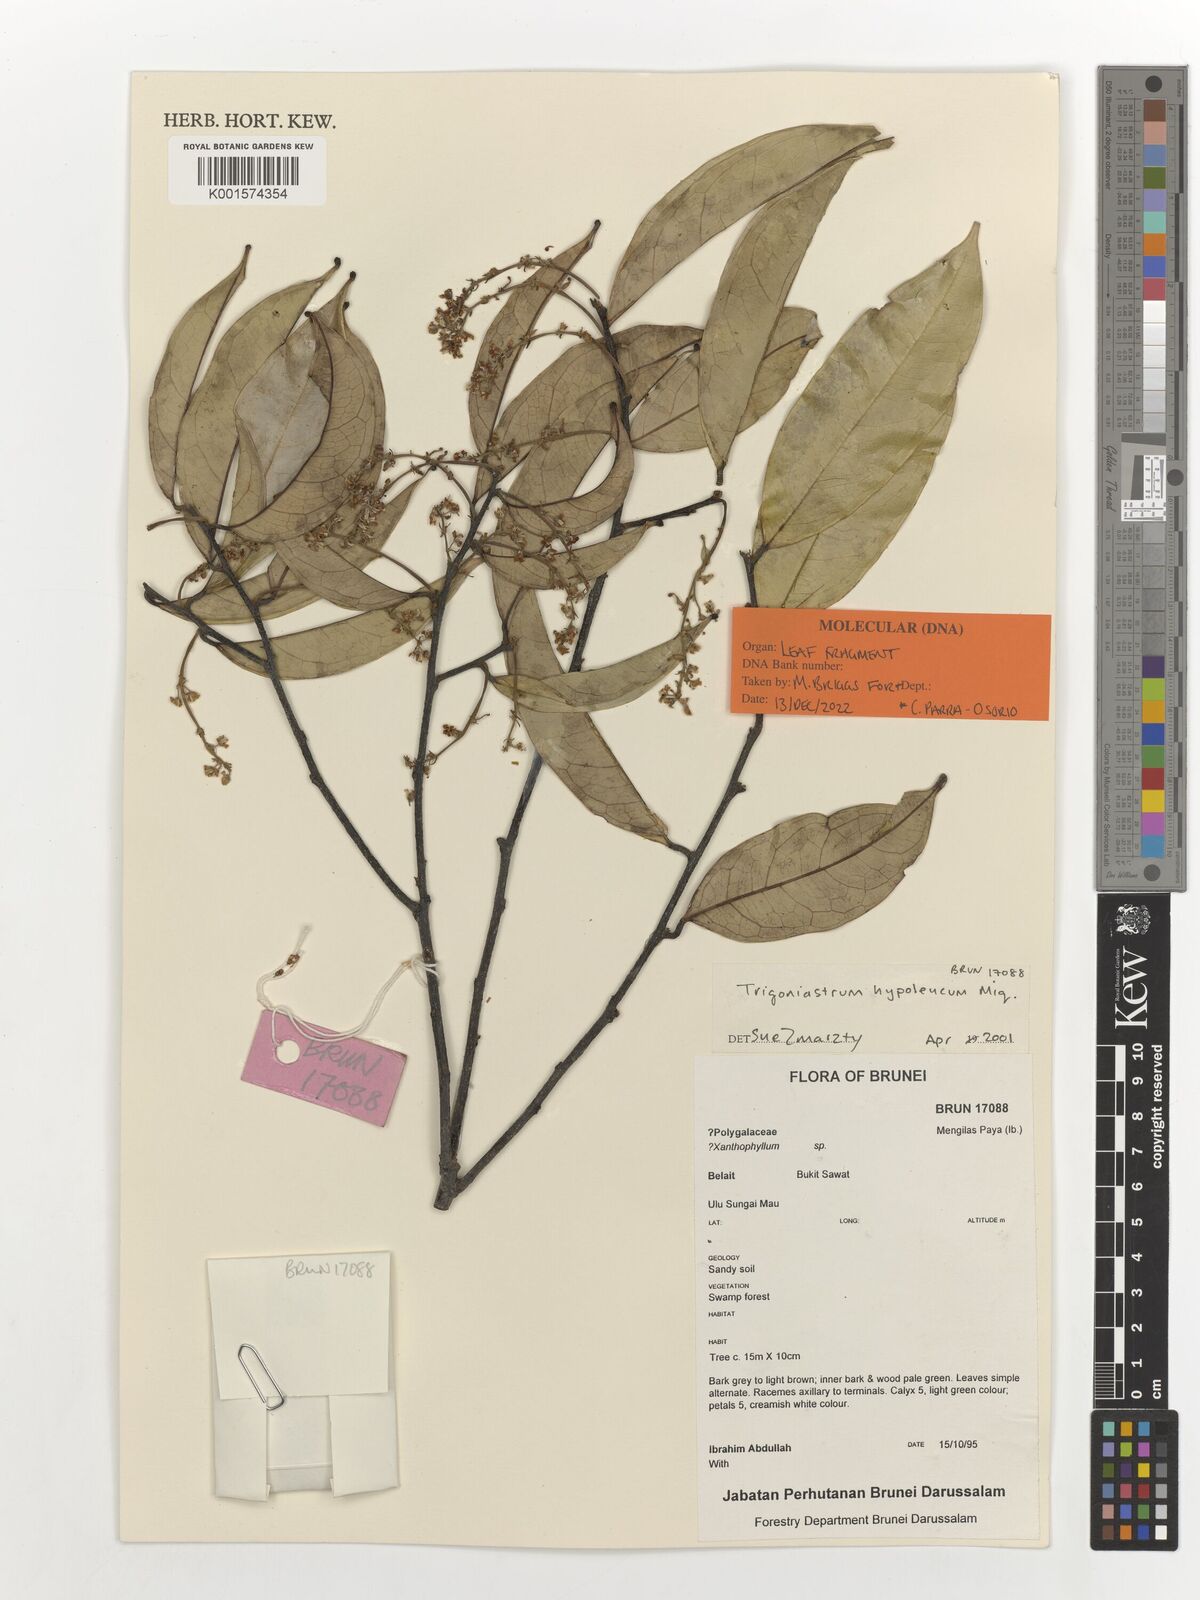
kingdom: Plantae
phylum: Tracheophyta
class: Magnoliopsida
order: Malpighiales
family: Trigoniaceae
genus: Trigoniastrum
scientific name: Trigoniastrum hypoleucum
